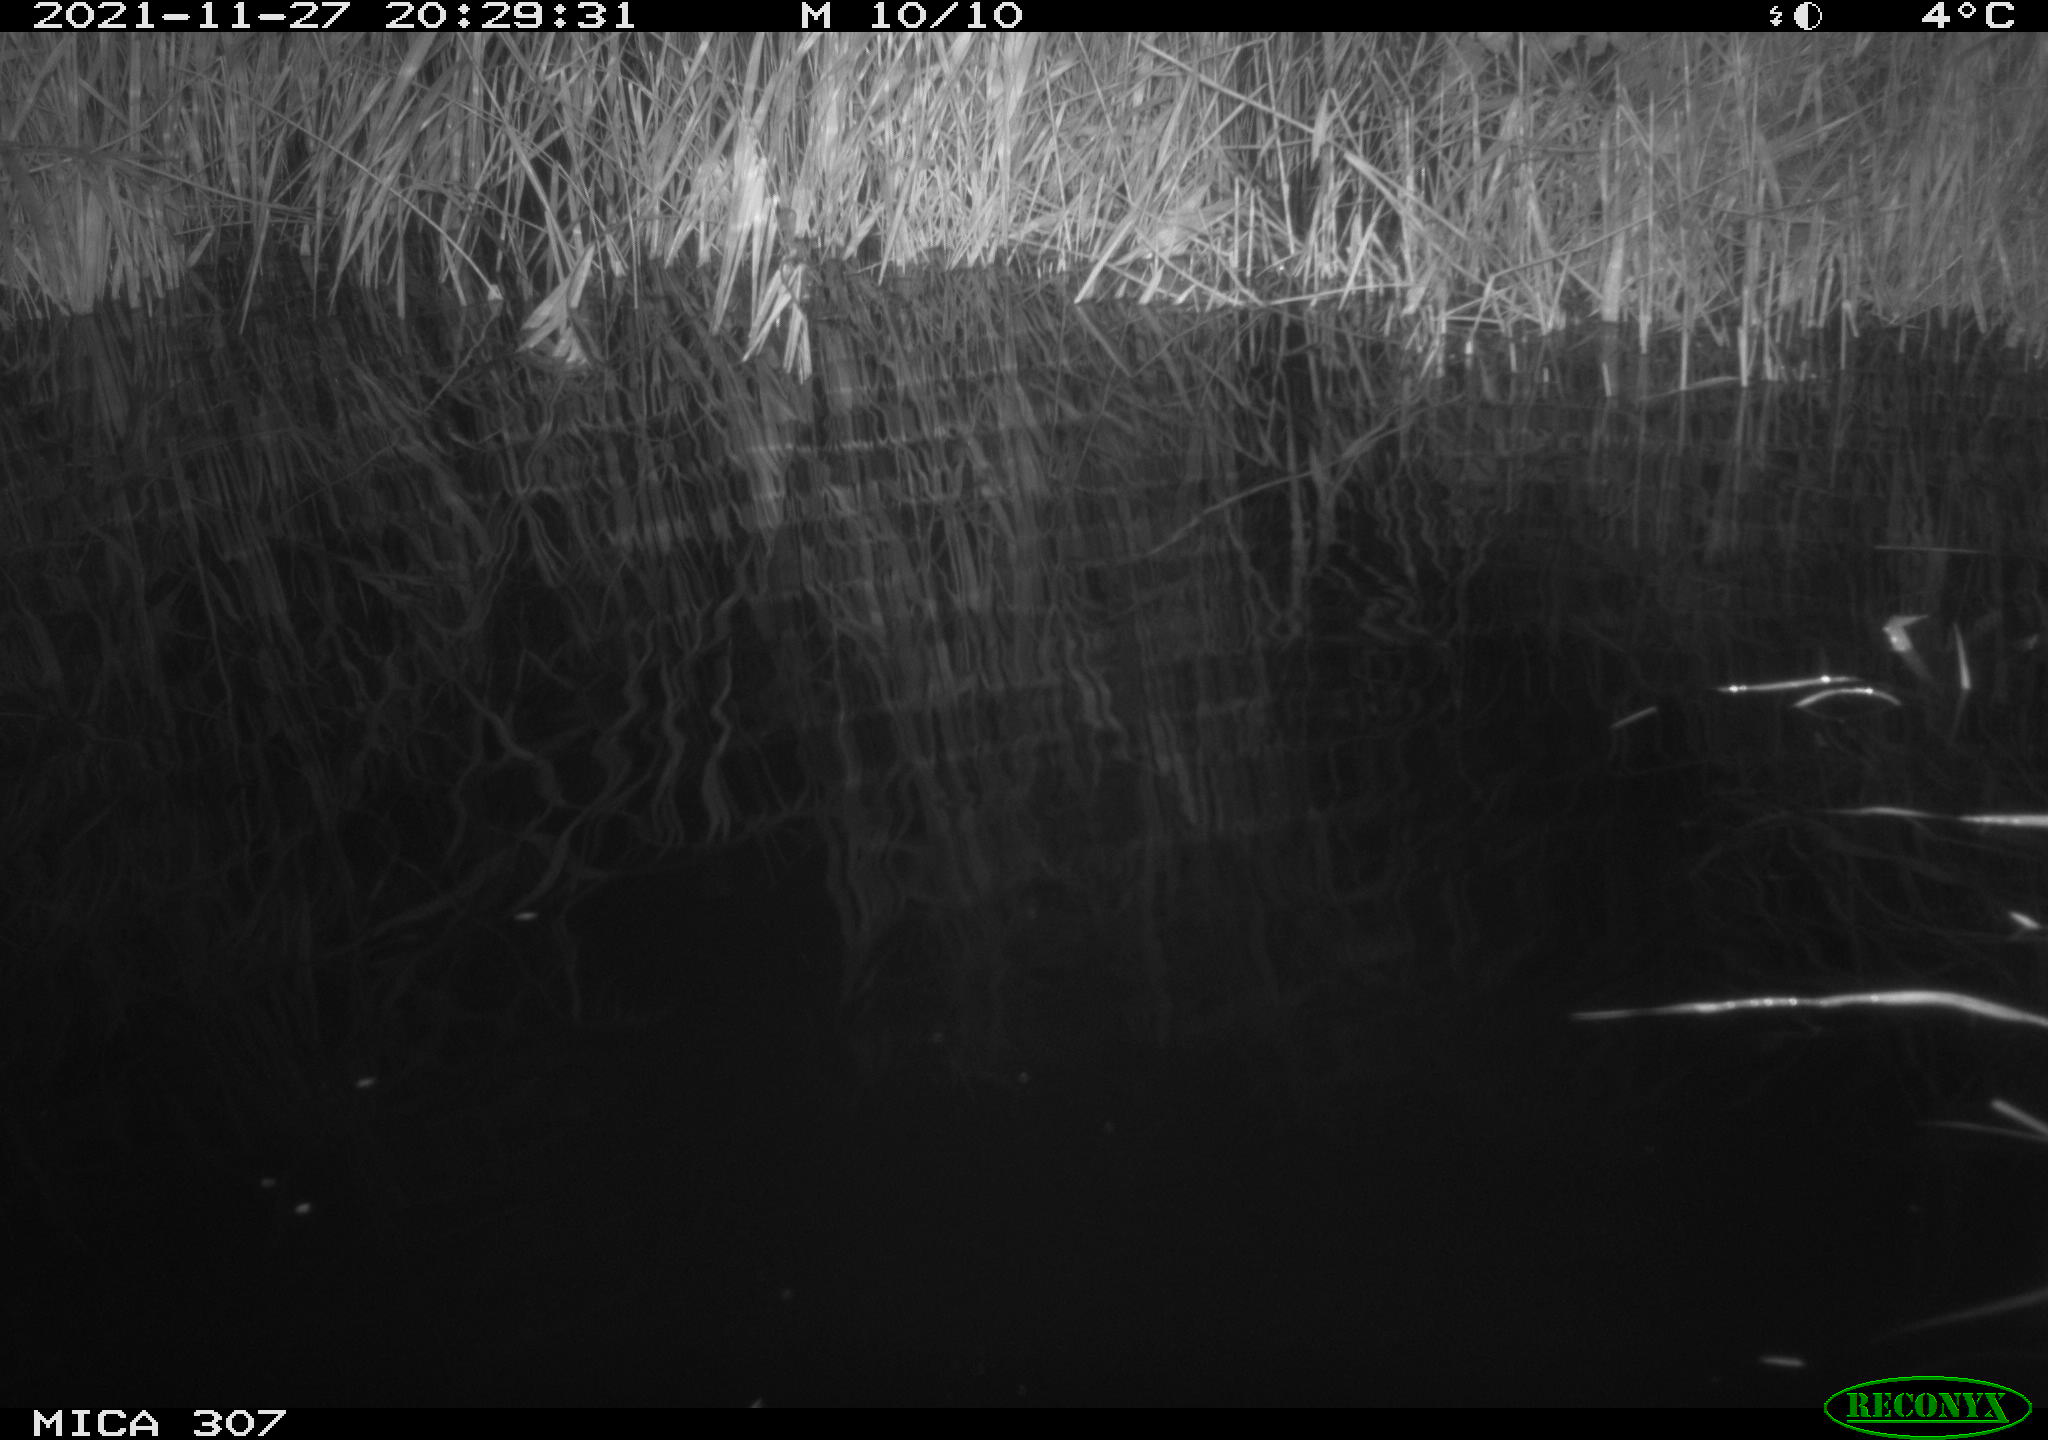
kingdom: Animalia
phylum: Chordata
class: Mammalia
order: Rodentia
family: Muridae
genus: Rattus
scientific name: Rattus norvegicus
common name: Brown rat
